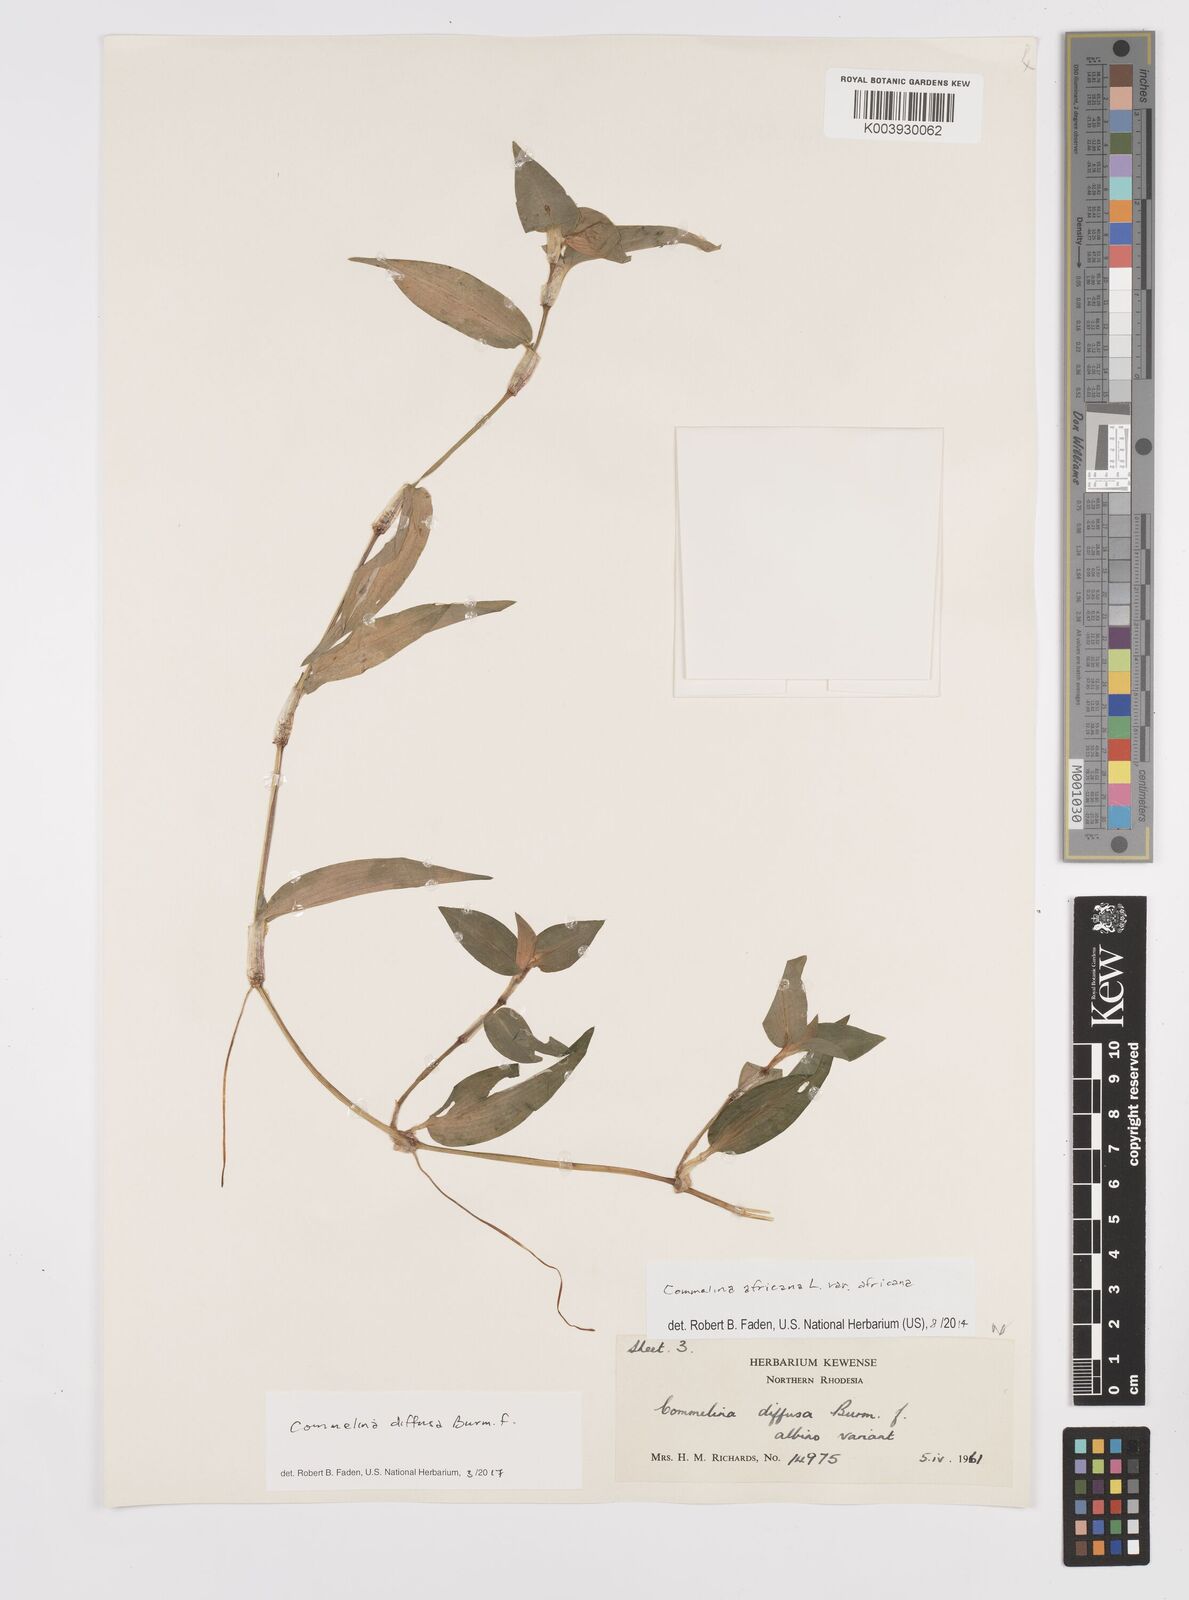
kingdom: Plantae
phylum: Tracheophyta
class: Liliopsida
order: Commelinales
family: Commelinaceae
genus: Commelina
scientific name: Commelina diffusa
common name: Climbing dayflower
